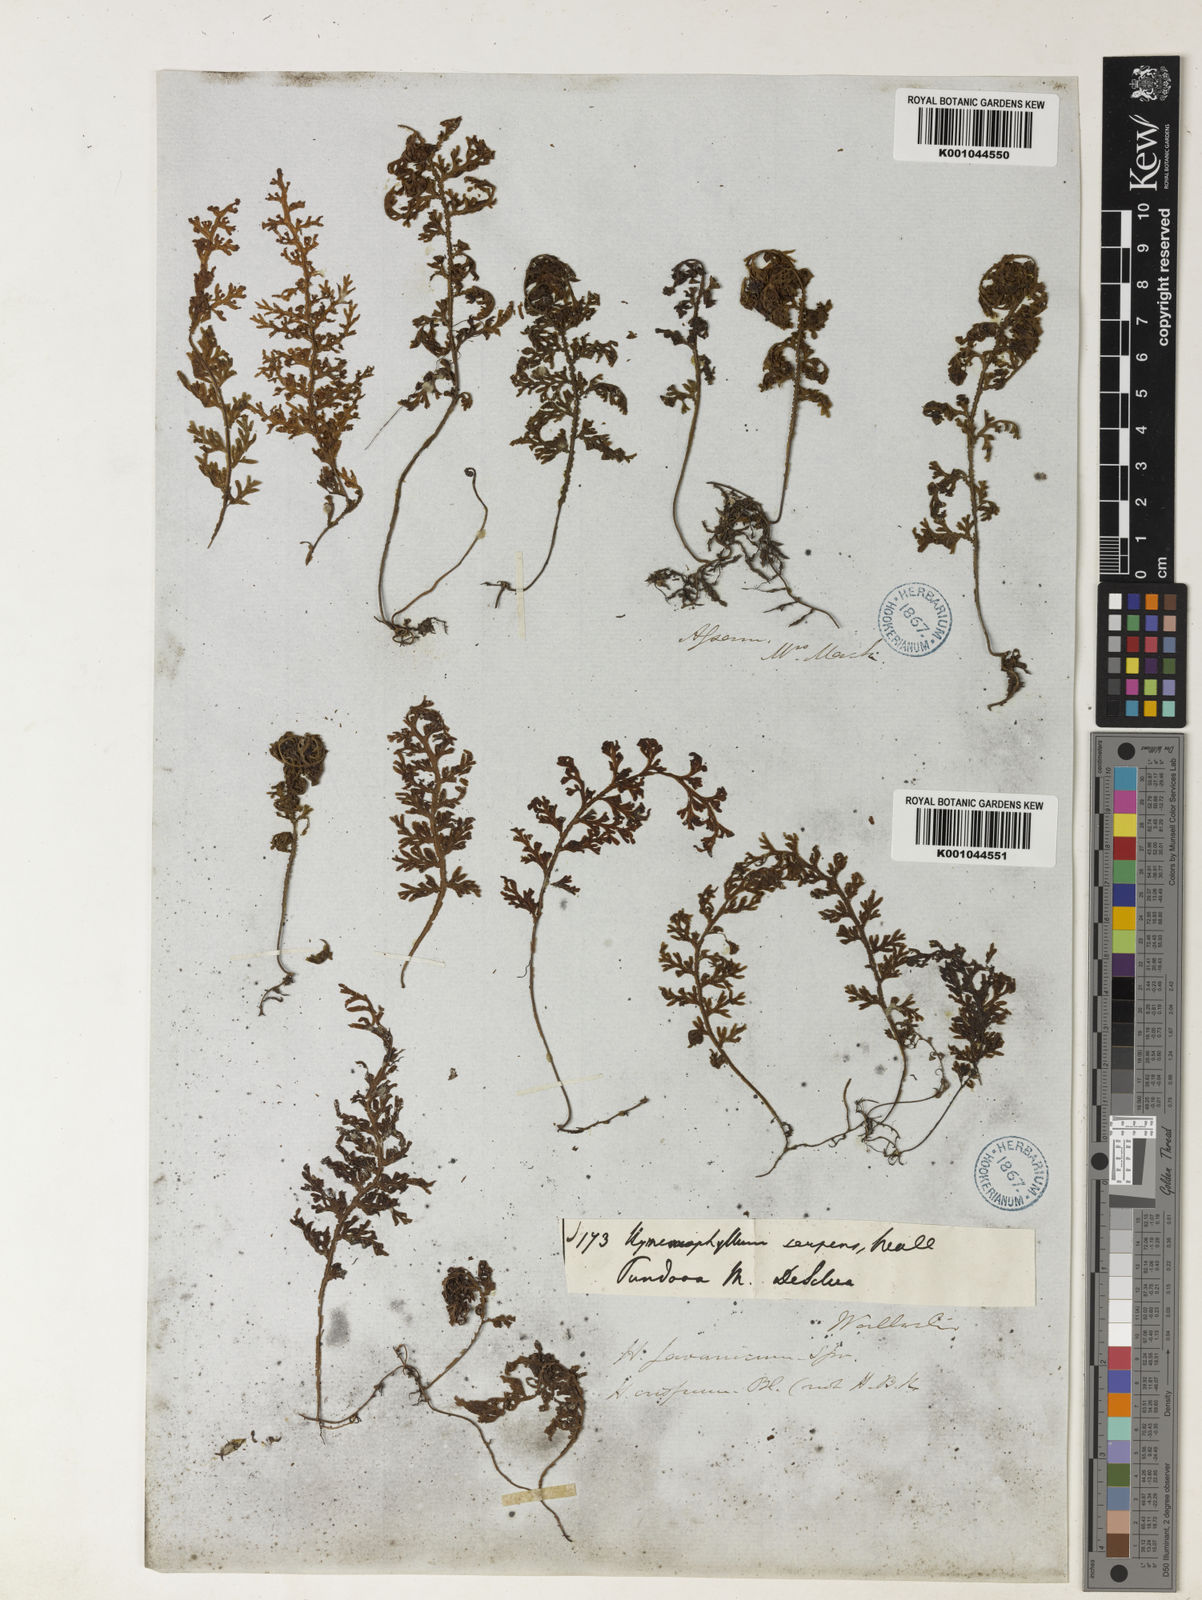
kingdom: Plantae
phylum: Tracheophyta
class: Polypodiopsida
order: Hymenophyllales
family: Hymenophyllaceae
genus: Hymenophyllum
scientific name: Hymenophyllum javanicum
